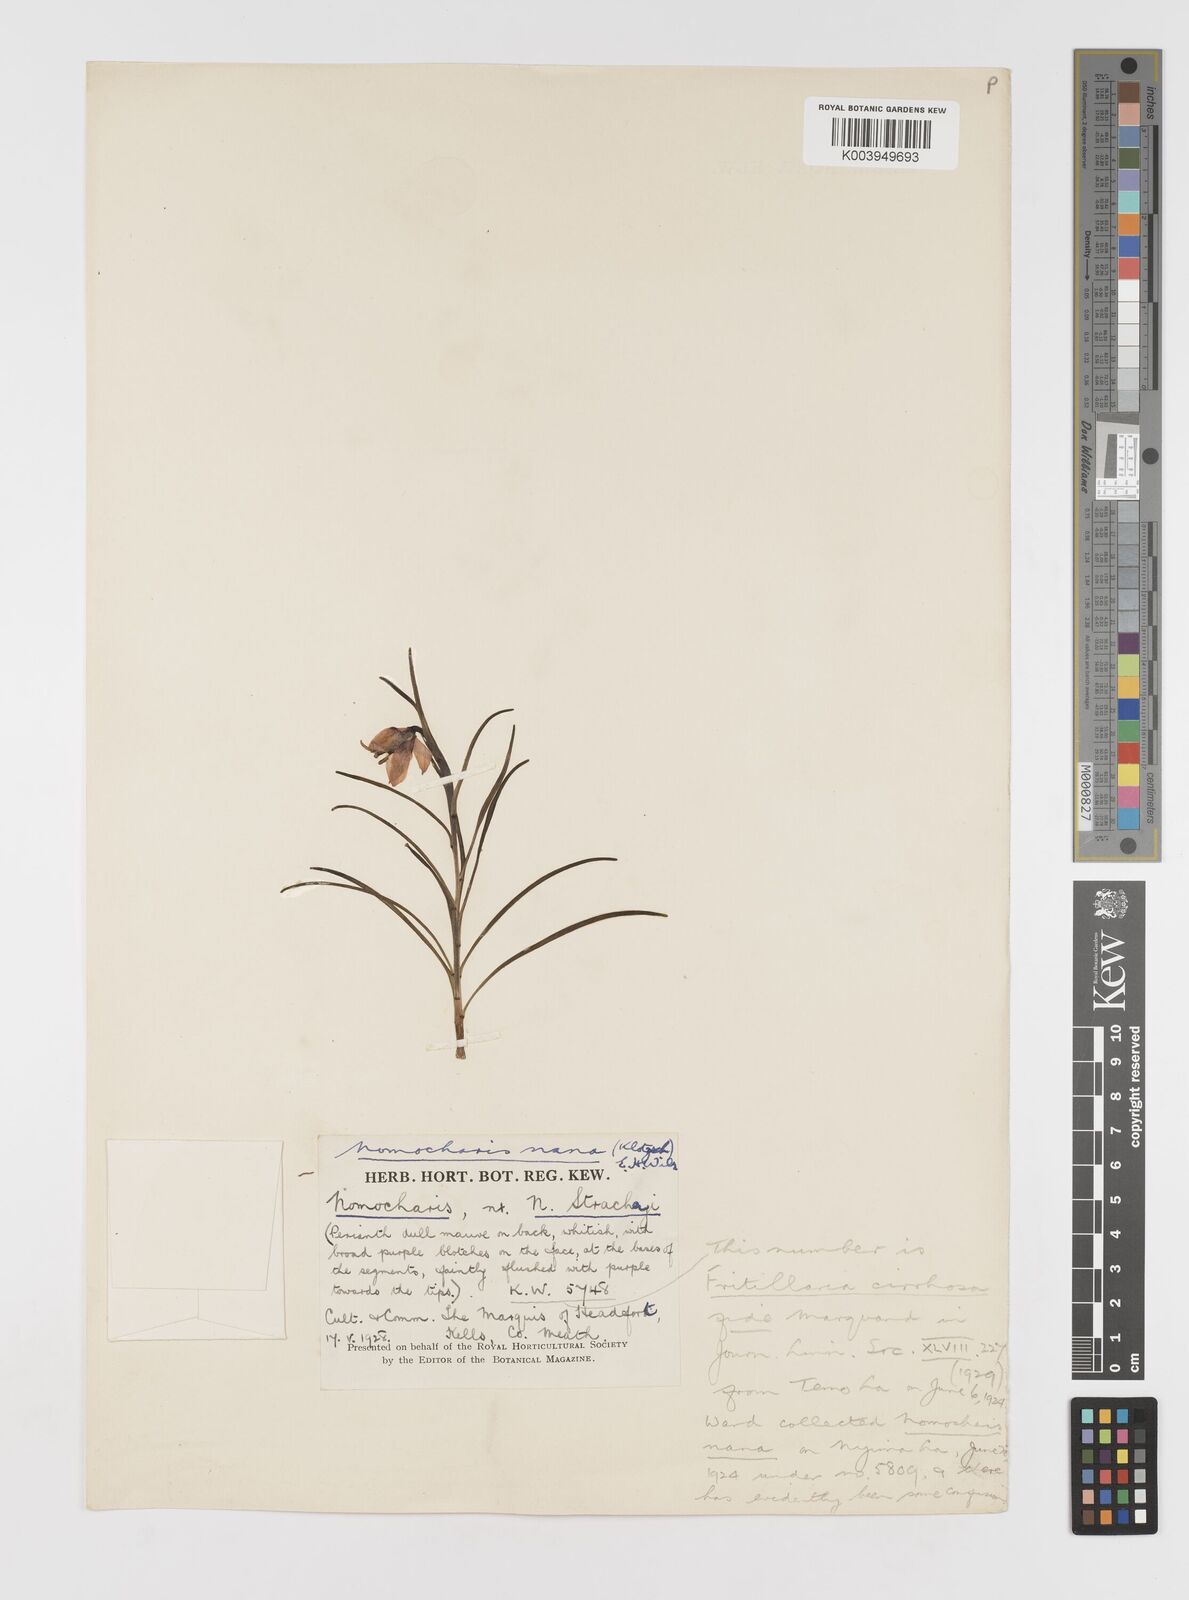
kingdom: Plantae
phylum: Tracheophyta
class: Liliopsida
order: Liliales
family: Liliaceae
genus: Lilium
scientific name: Lilium nanum
